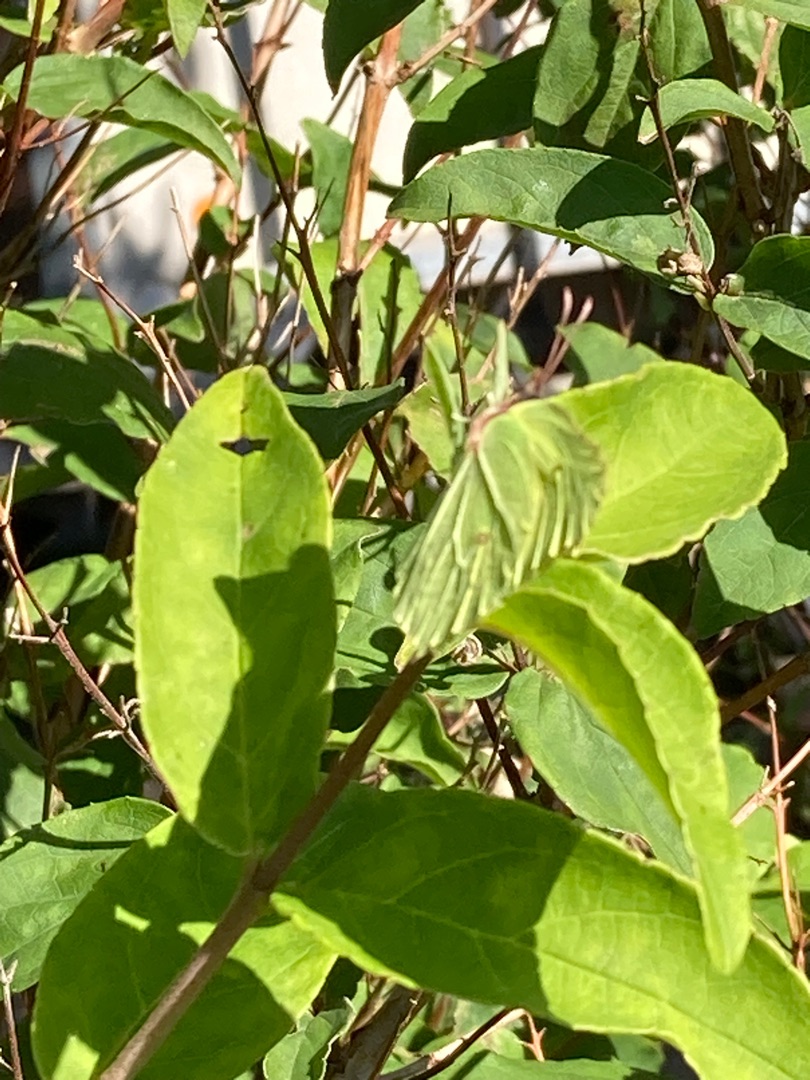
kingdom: Animalia
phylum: Arthropoda
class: Insecta
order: Lepidoptera
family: Pieridae
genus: Gonepteryx
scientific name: Gonepteryx rhamni
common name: Citronsommerfugl
